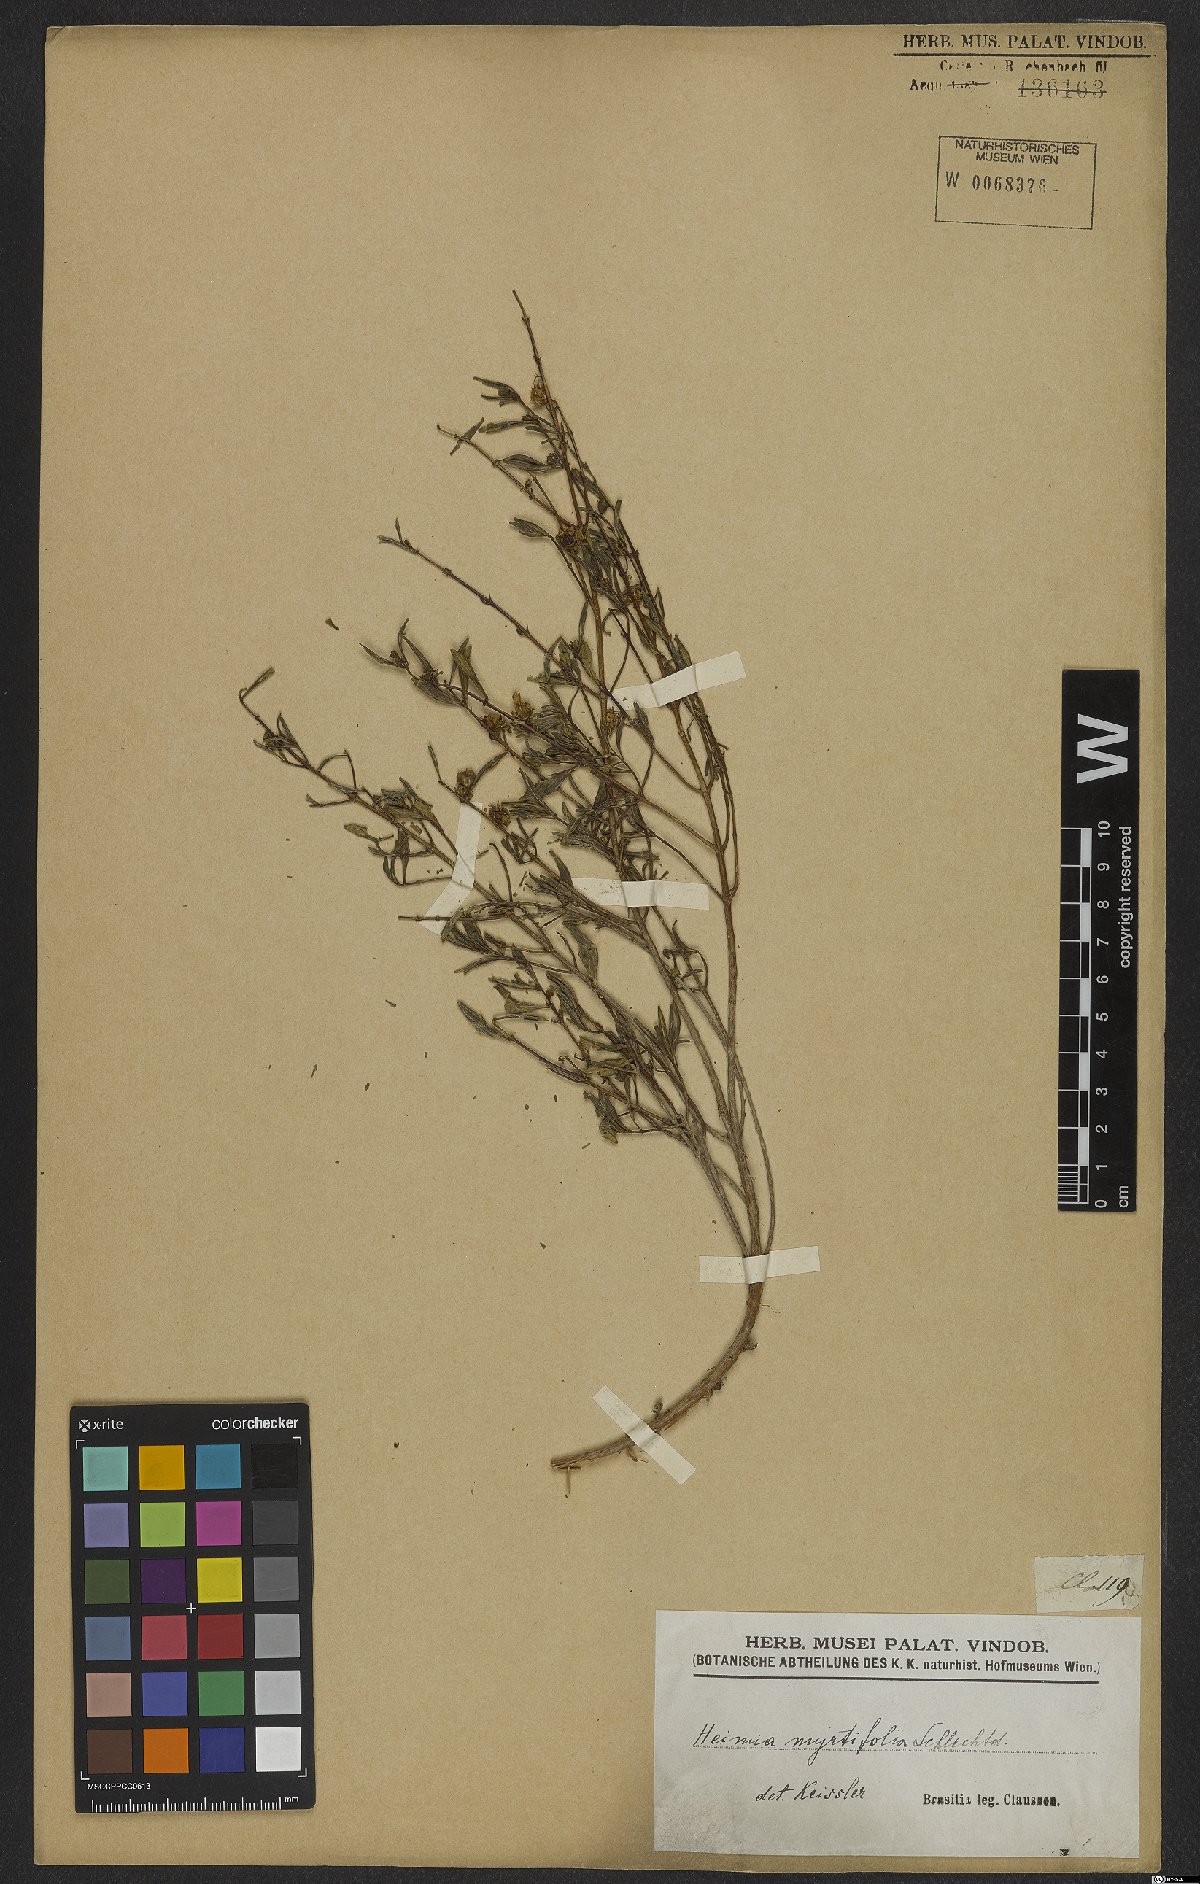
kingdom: Plantae
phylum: Tracheophyta
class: Magnoliopsida
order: Myrtales
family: Lythraceae
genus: Heimia
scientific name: Heimia apetala
